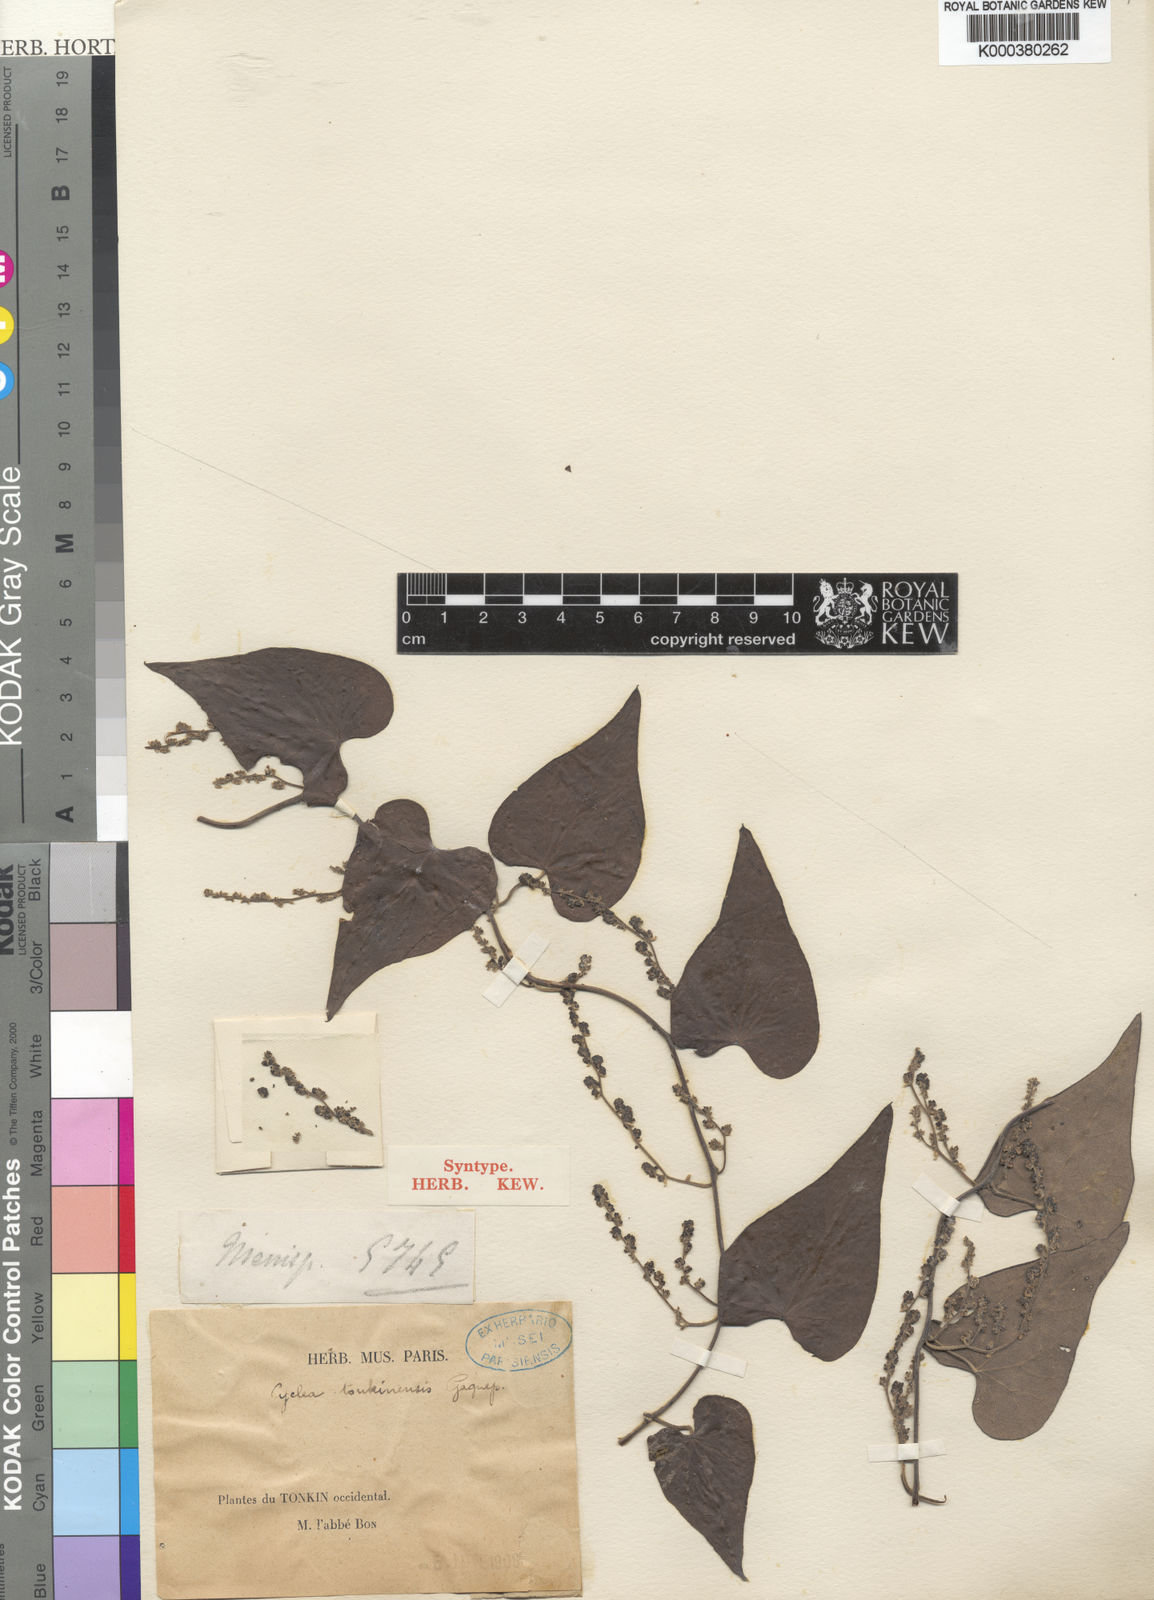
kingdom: Plantae
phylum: Tracheophyta
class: Magnoliopsida
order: Ranunculales
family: Menispermaceae
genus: Cyclea
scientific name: Cyclea tonkinensis
